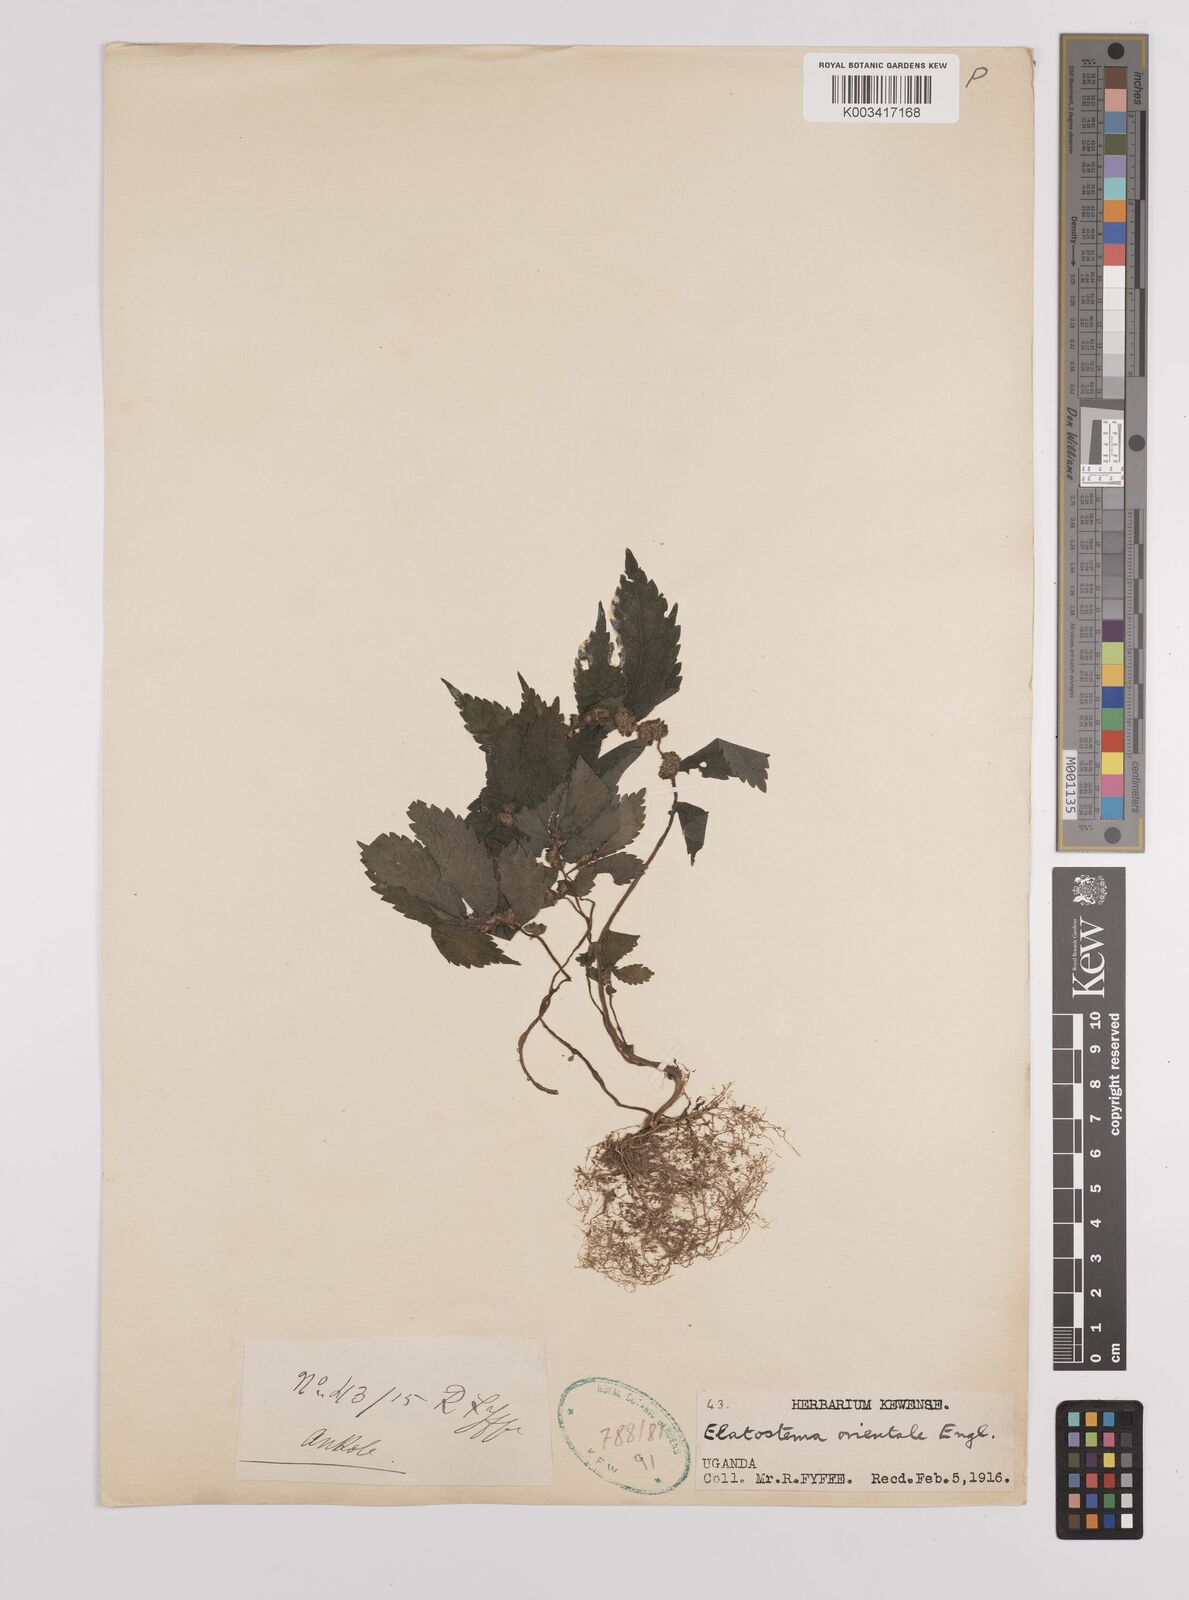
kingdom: Plantae
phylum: Tracheophyta
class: Magnoliopsida
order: Rosales
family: Urticaceae
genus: Elatostema
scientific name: Elatostema monticola
